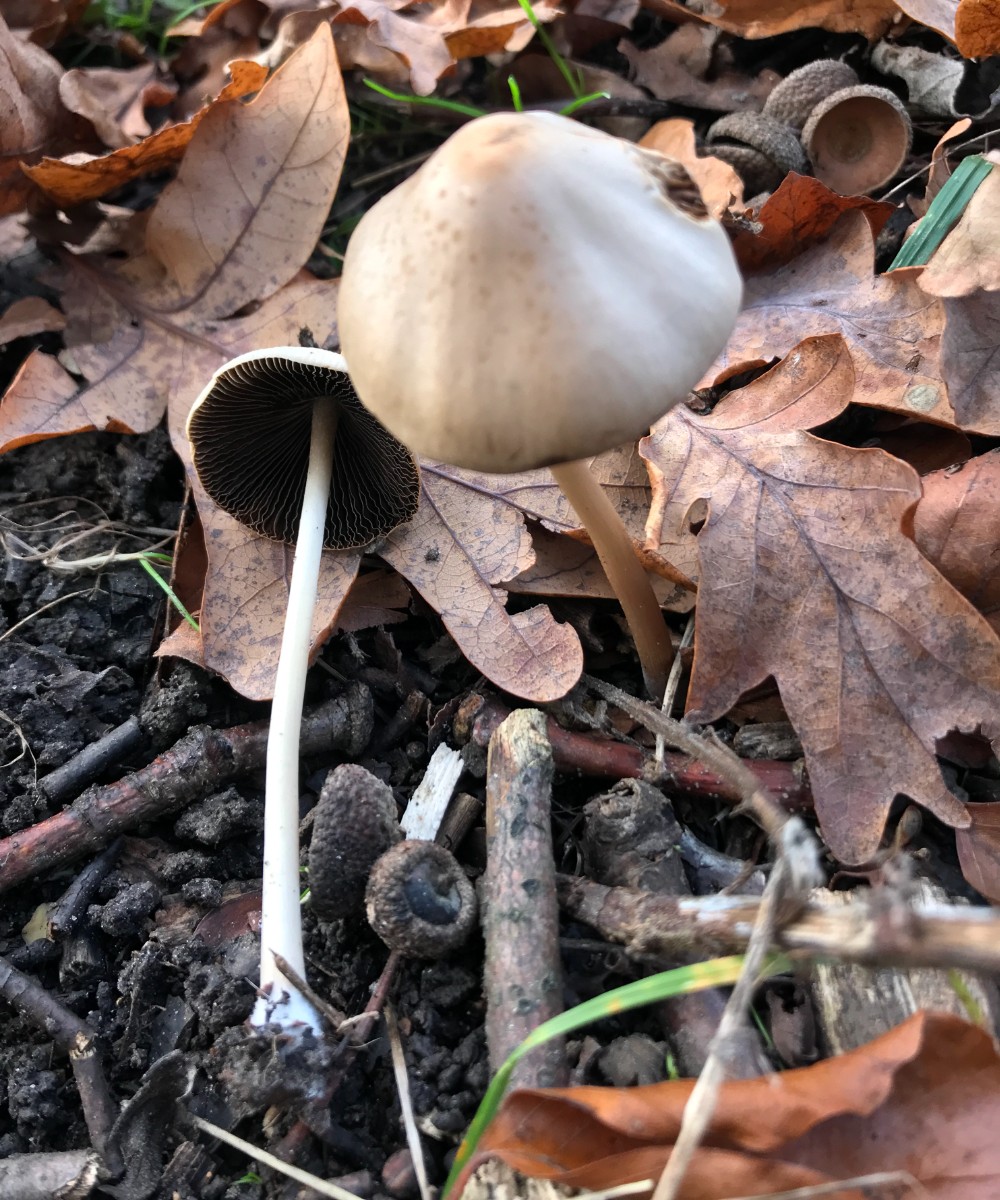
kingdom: Fungi
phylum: Basidiomycota
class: Agaricomycetes
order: Agaricales
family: Psathyrellaceae
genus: Parasola
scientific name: Parasola conopilea
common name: kegle-hjulhat
